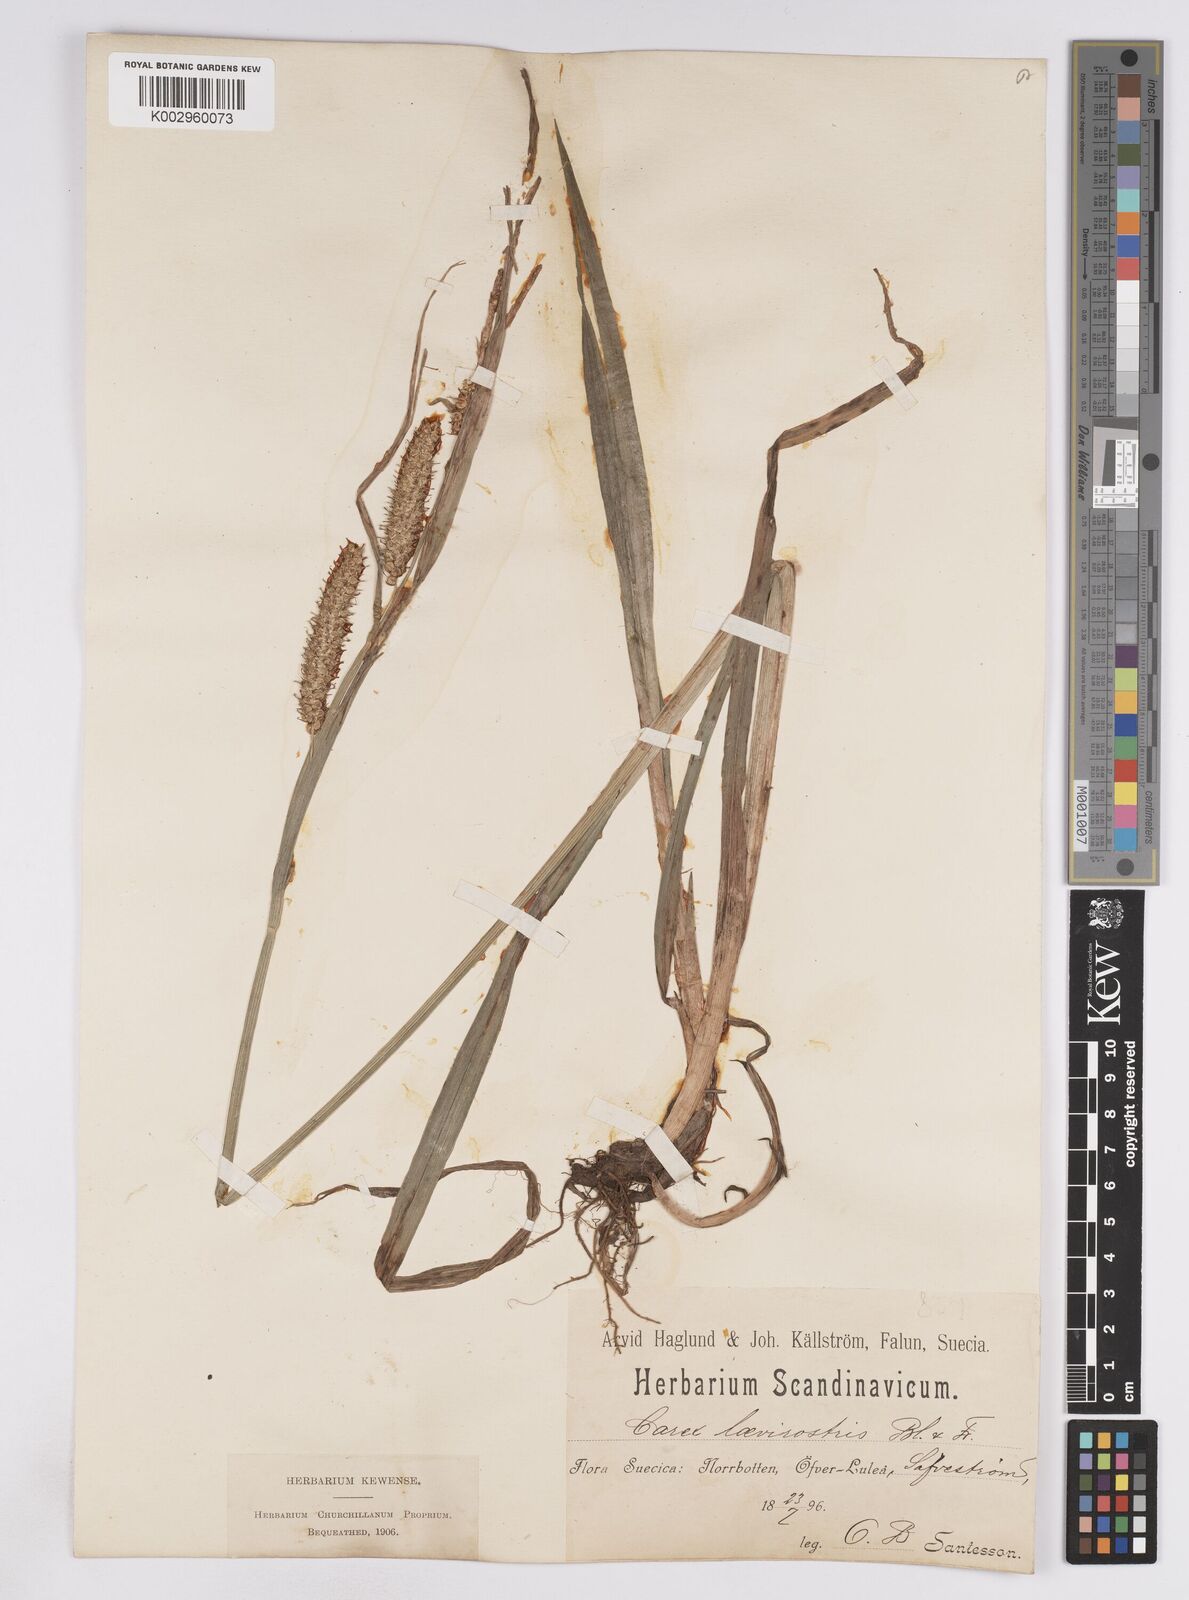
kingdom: Plantae
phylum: Tracheophyta
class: Liliopsida
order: Poales
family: Cyperaceae
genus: Carex
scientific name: Carex utriculata
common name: Beaked sedge
